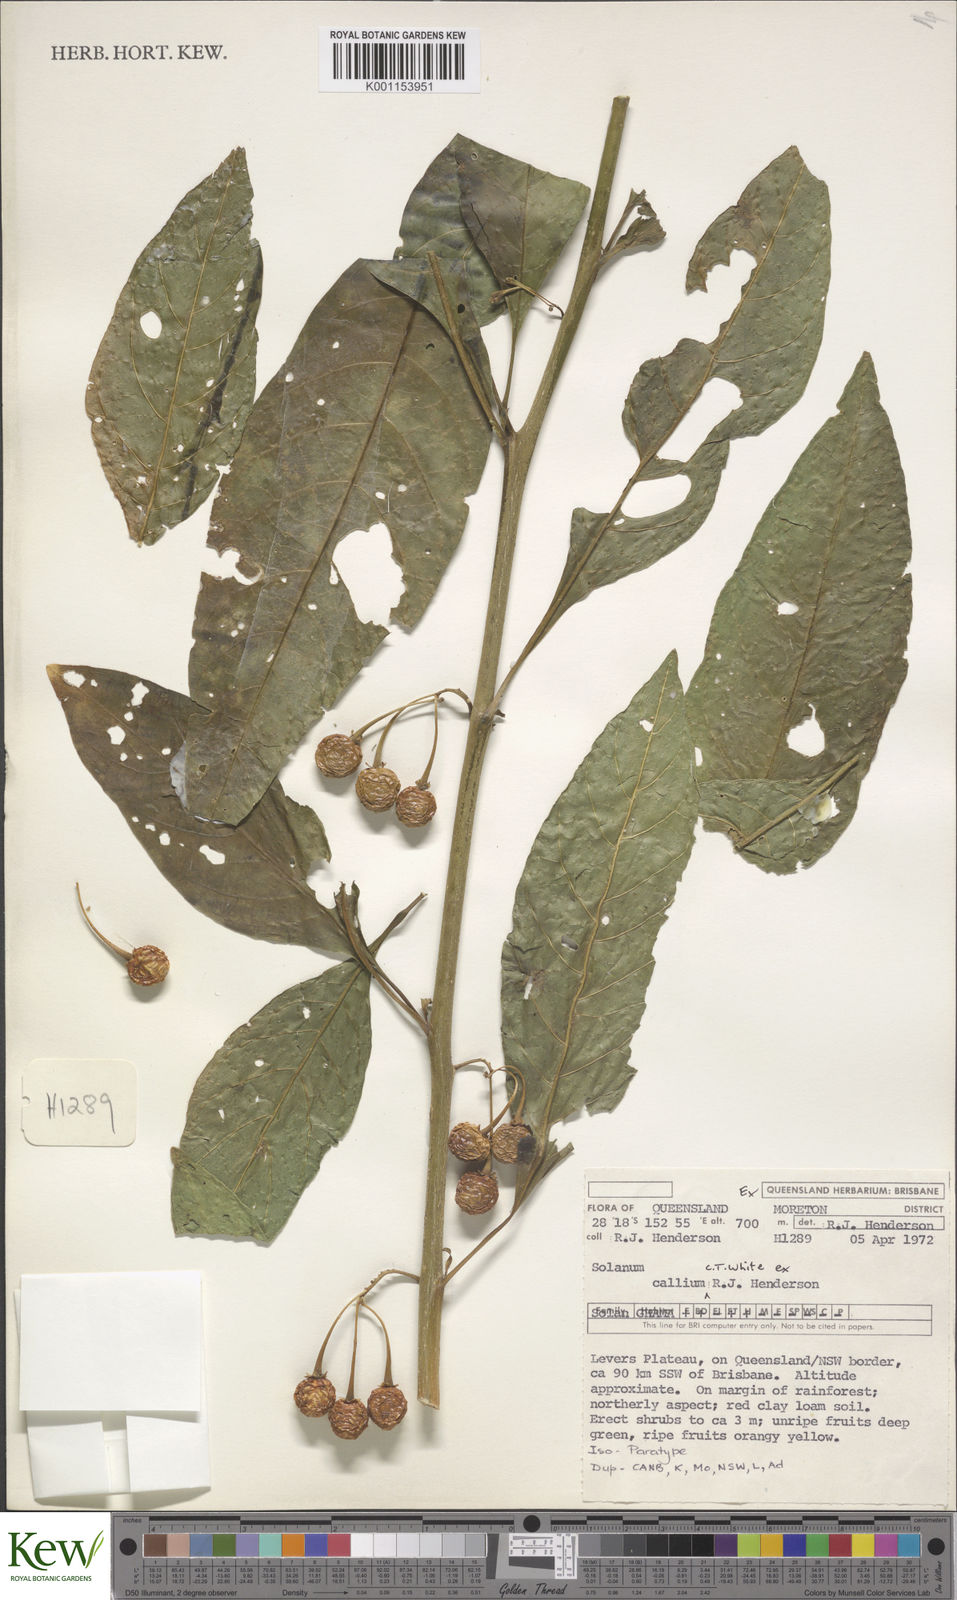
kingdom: Plantae
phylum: Tracheophyta
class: Magnoliopsida
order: Solanales
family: Solanaceae
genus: Solanum
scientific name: Solanum spirale
